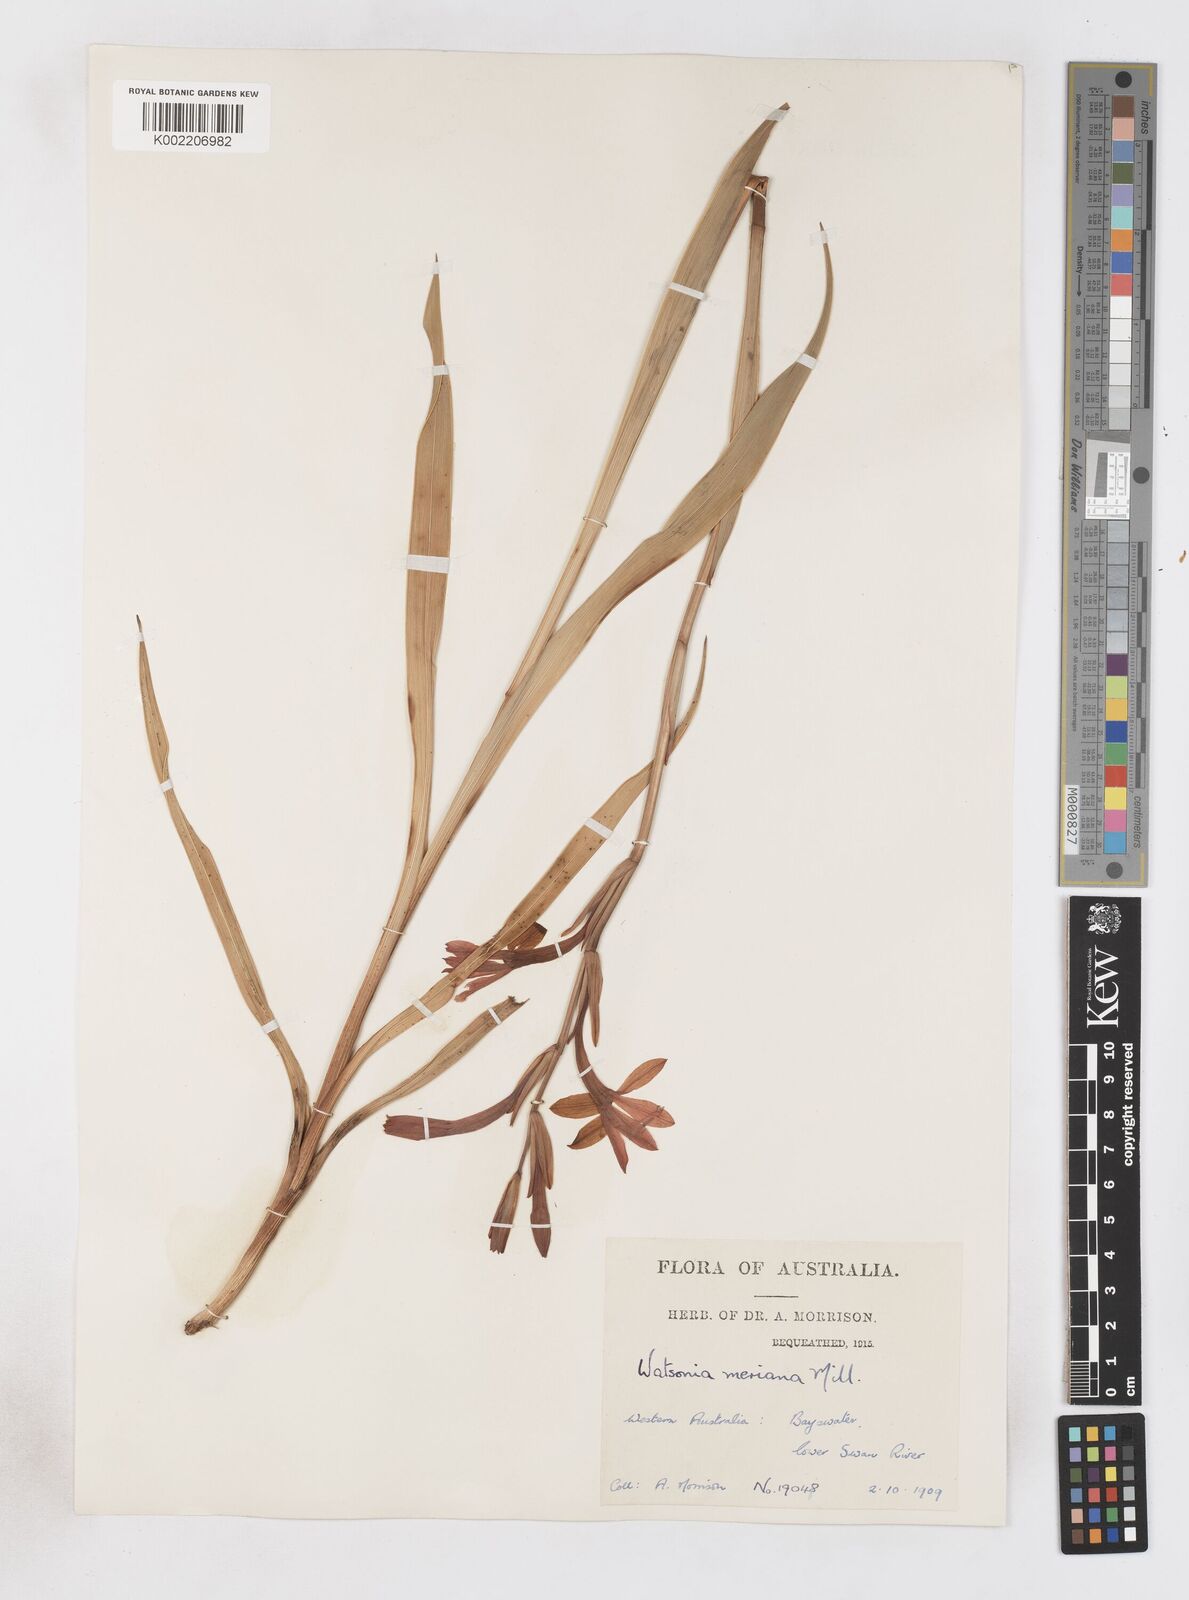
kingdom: Plantae
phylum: Tracheophyta
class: Liliopsida
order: Asparagales
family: Iridaceae
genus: Pillansia
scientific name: Pillansia
